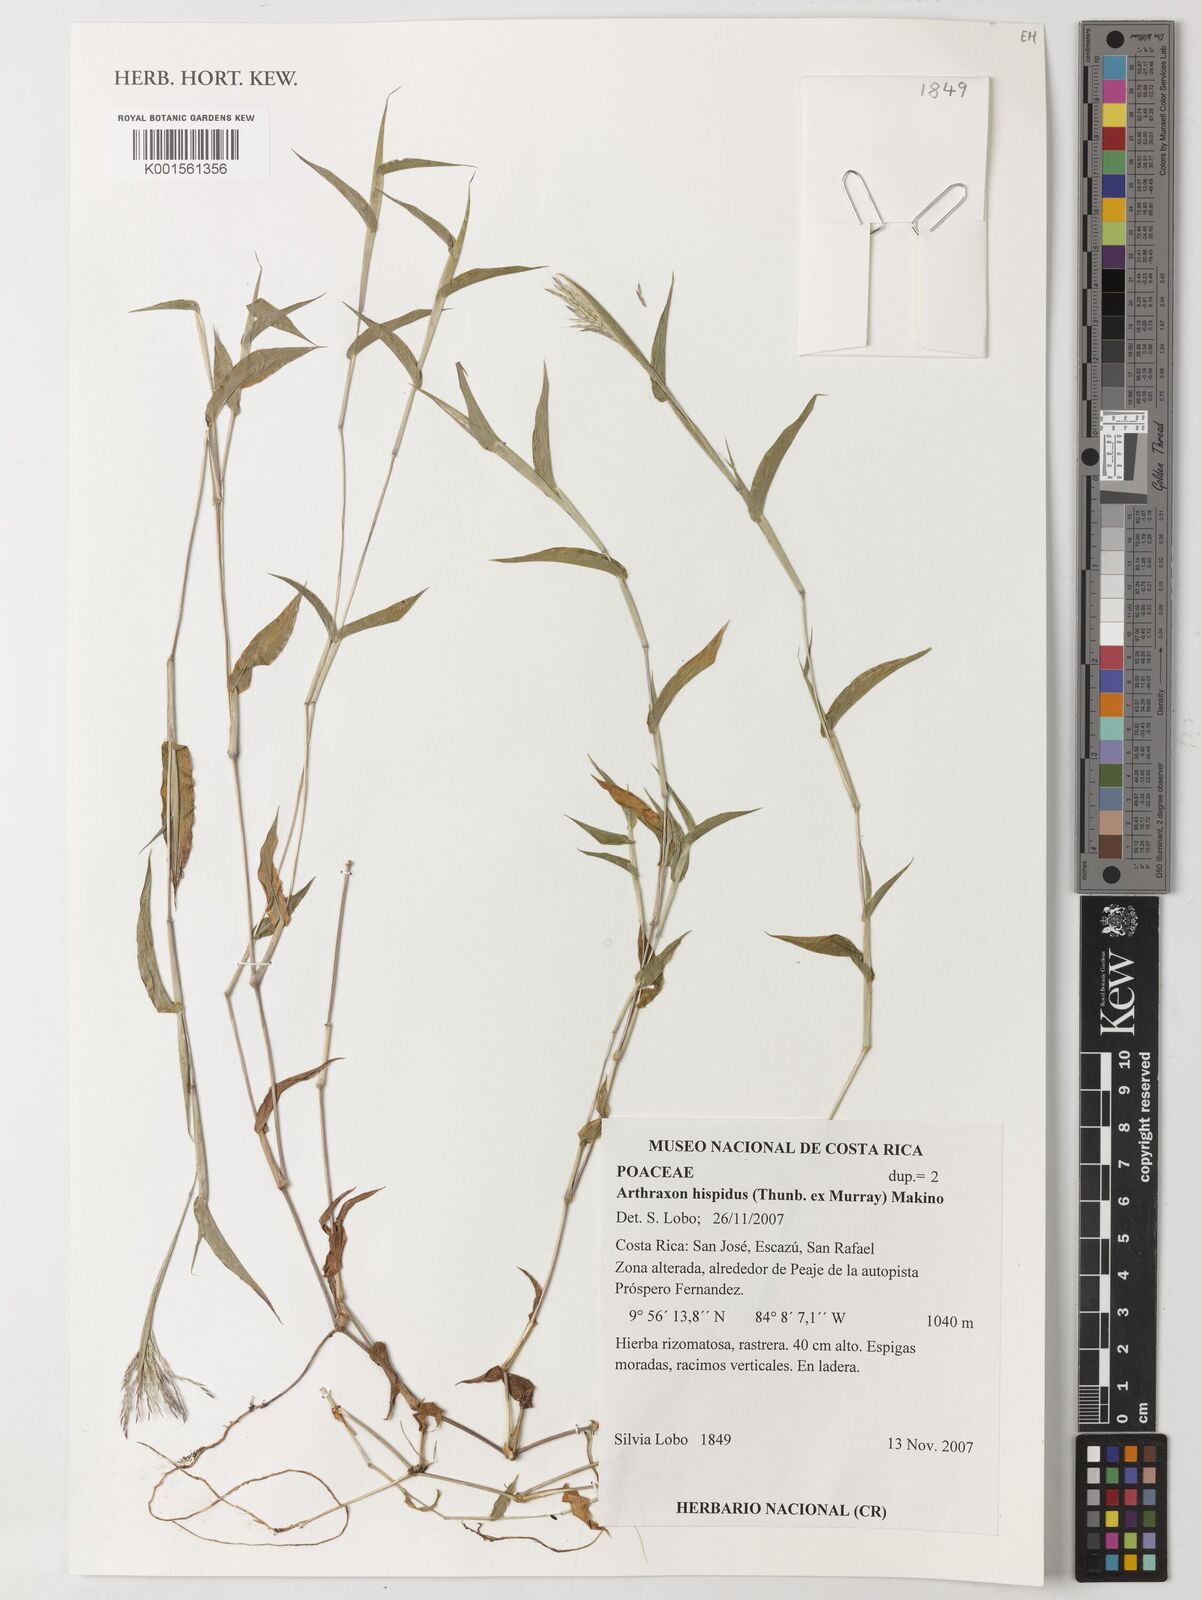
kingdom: Plantae
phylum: Tracheophyta
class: Liliopsida
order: Poales
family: Poaceae
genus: Arthraxon
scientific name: Arthraxon hispidus
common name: Small carpgrass
